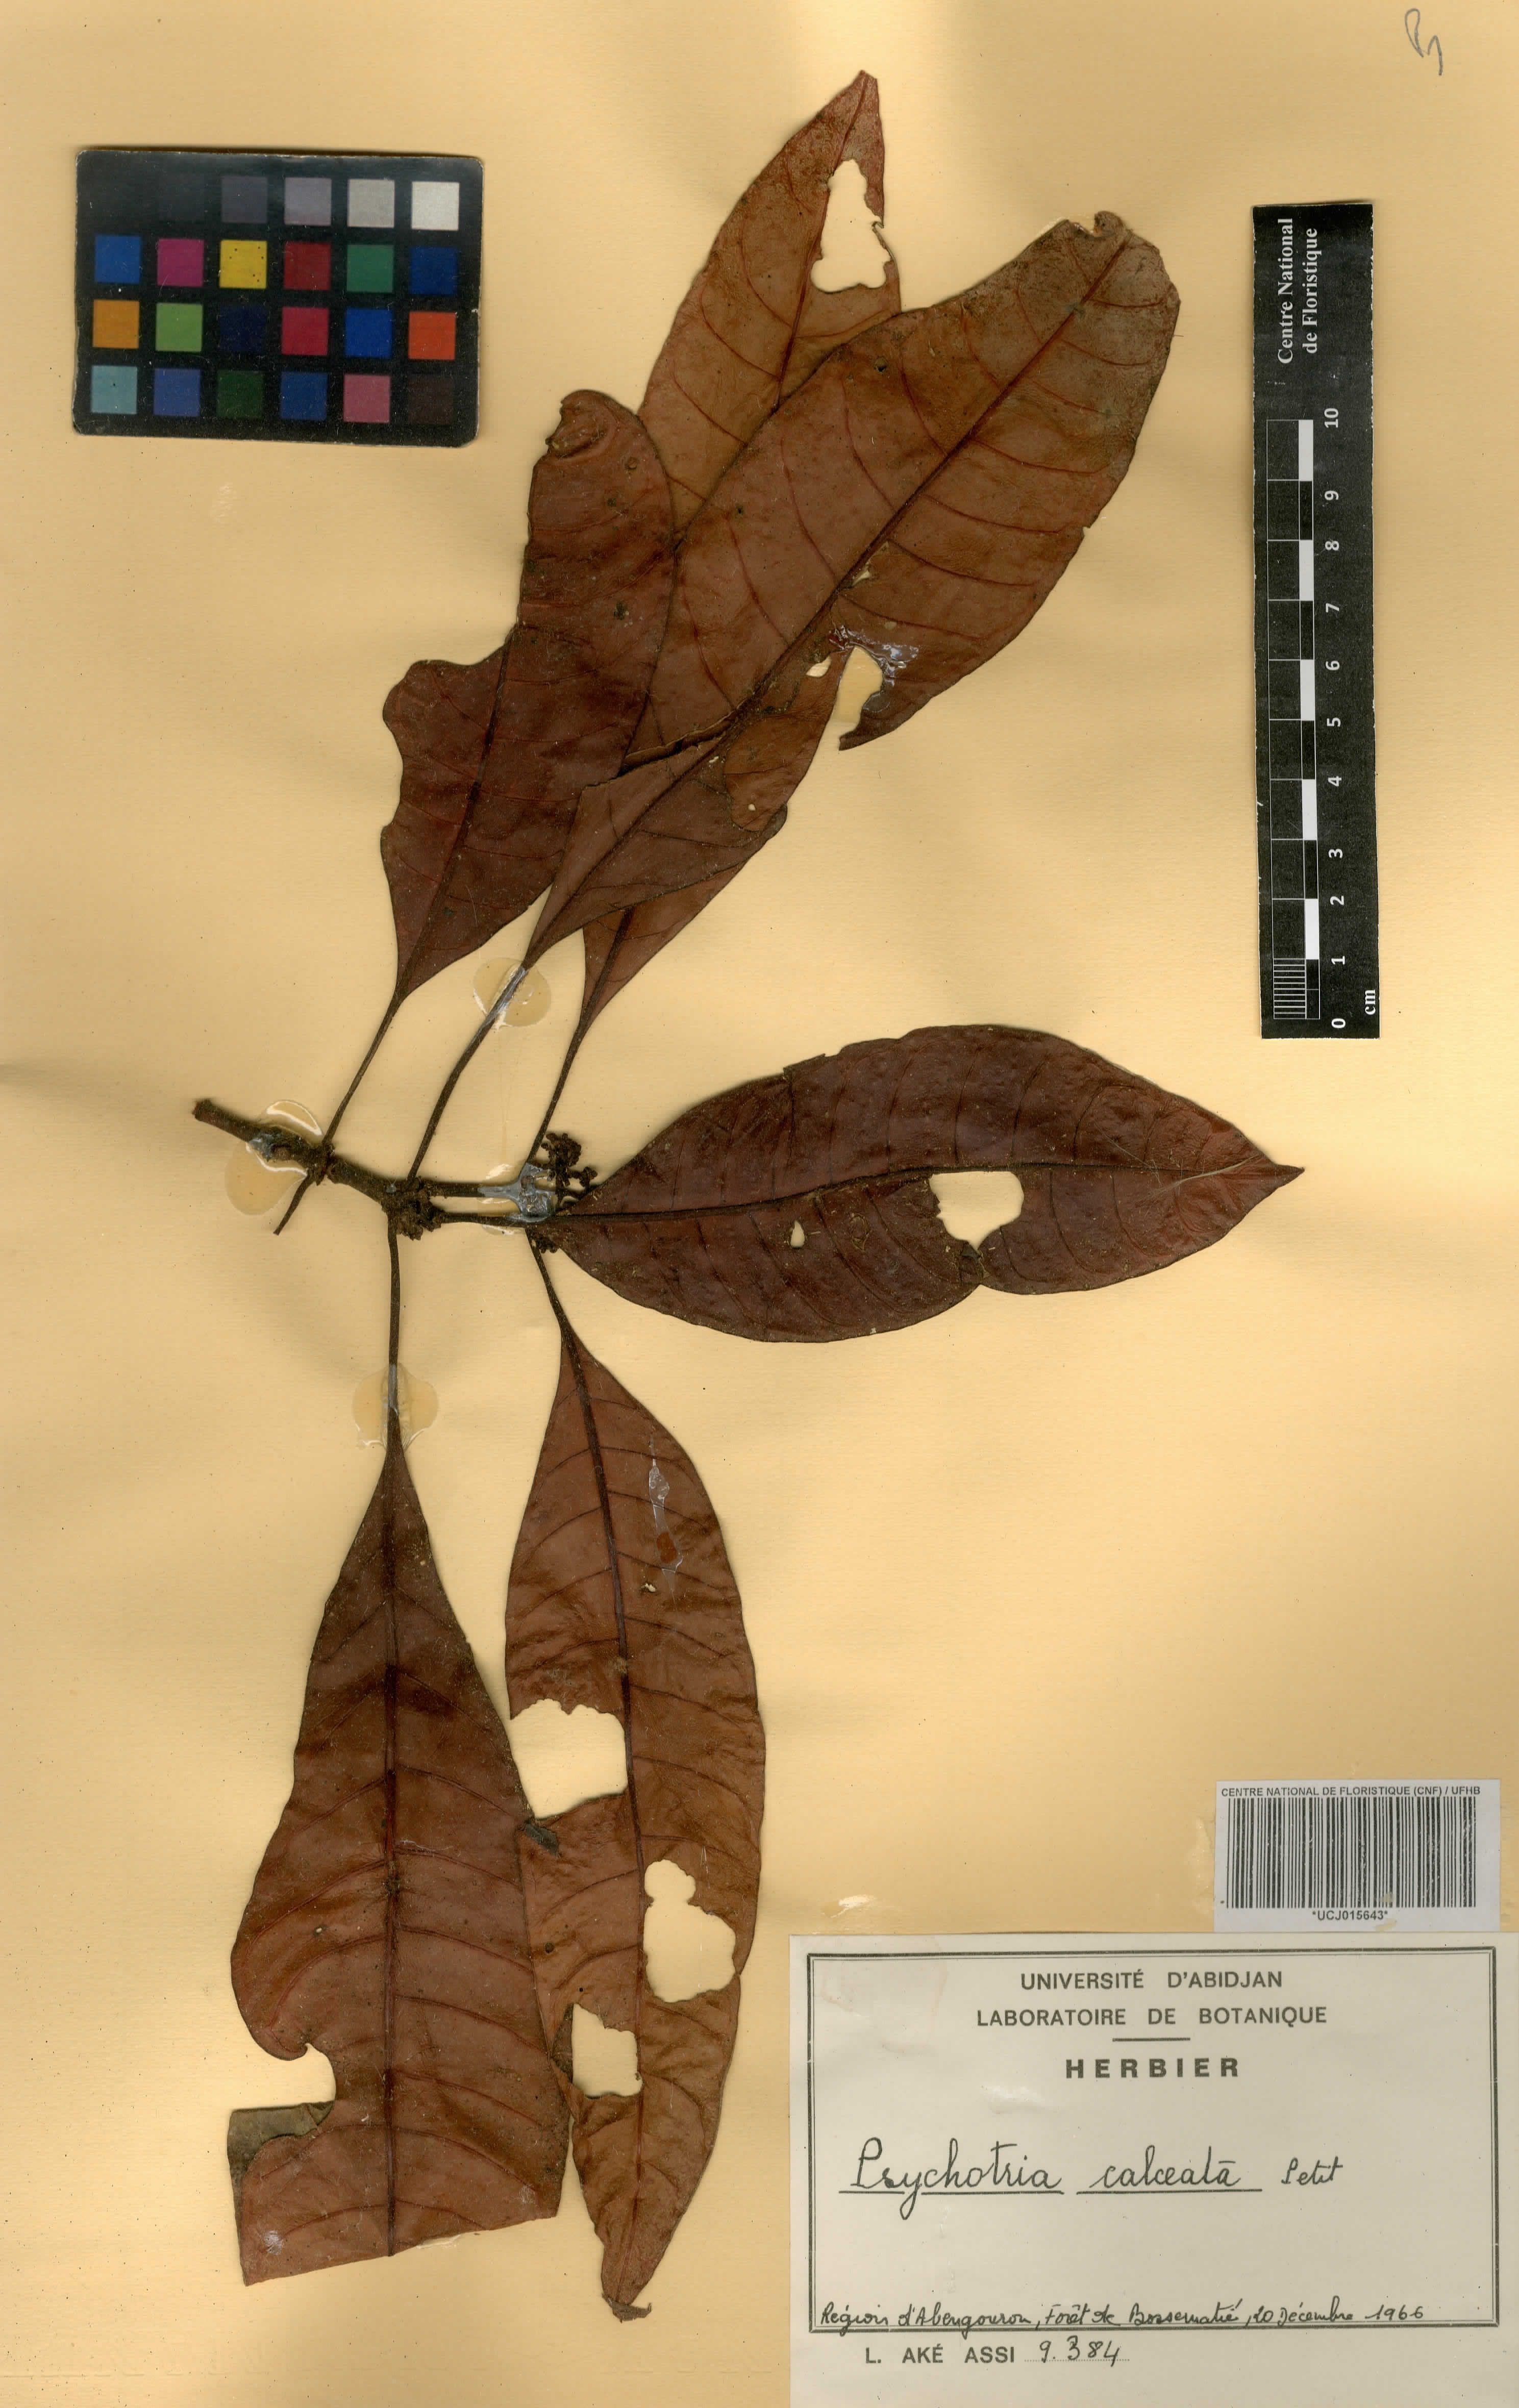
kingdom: Plantae
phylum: Tracheophyta
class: Magnoliopsida
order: Gentianales
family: Rubiaceae
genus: Psychotria
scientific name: Psychotria calceata
